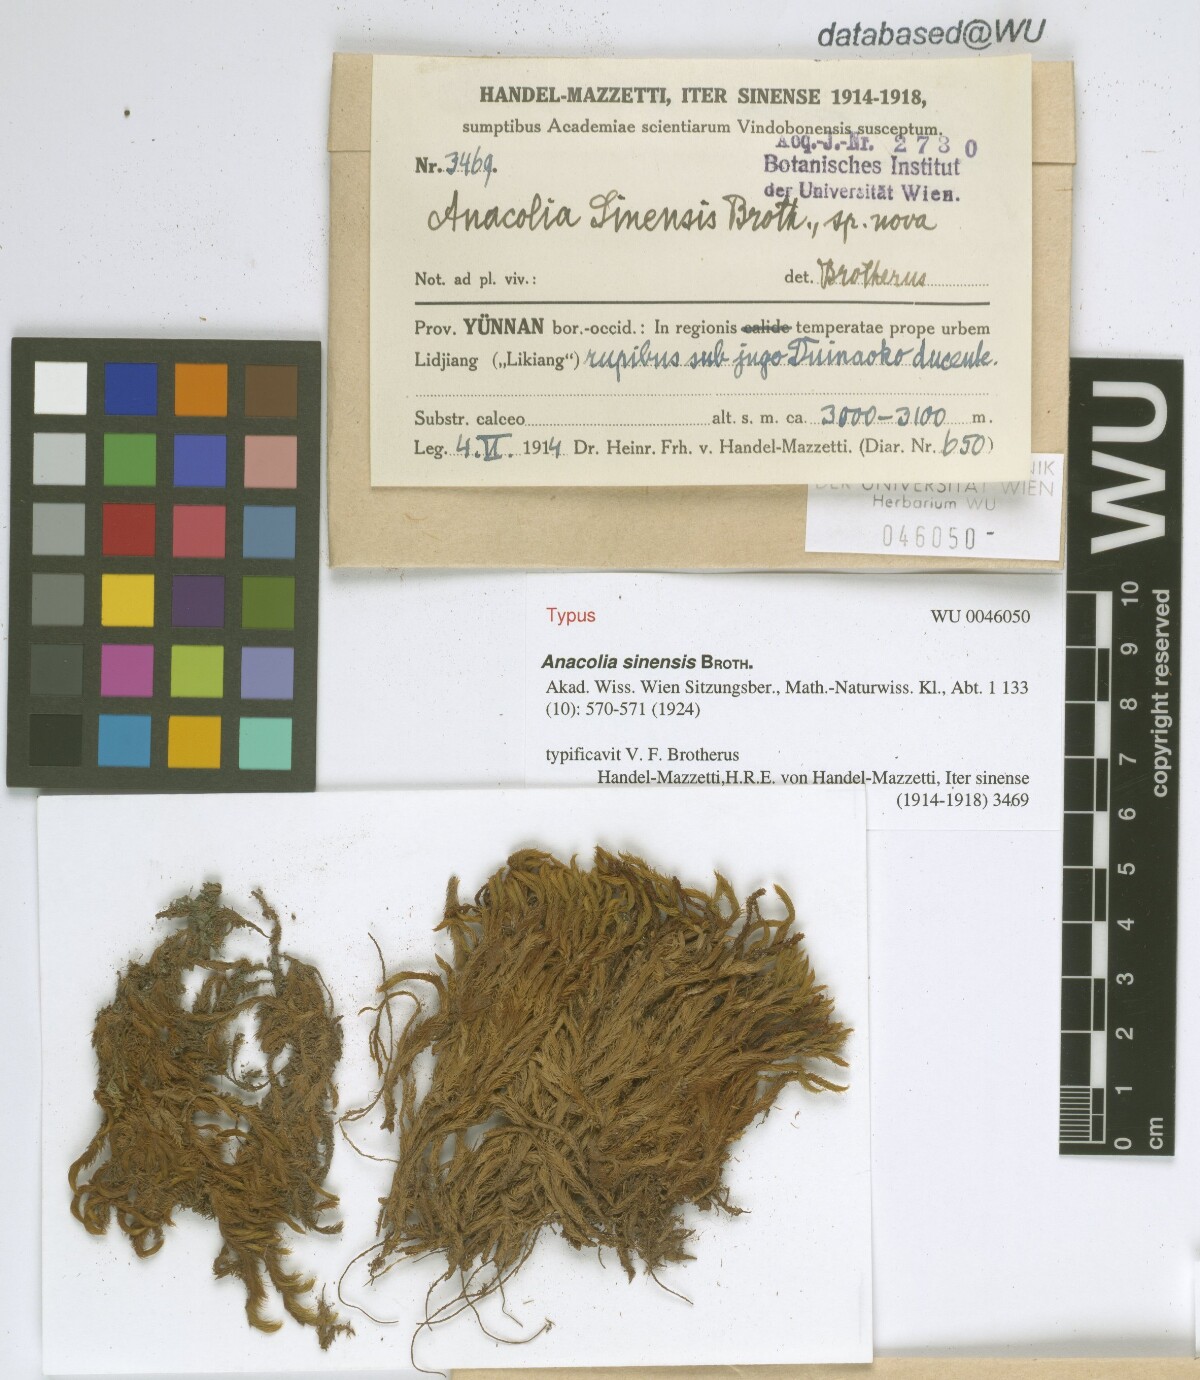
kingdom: Plantae
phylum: Bryophyta
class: Bryopsida
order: Bartramiales
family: Bartramiaceae
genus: Flowersia
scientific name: Flowersia sinensis
